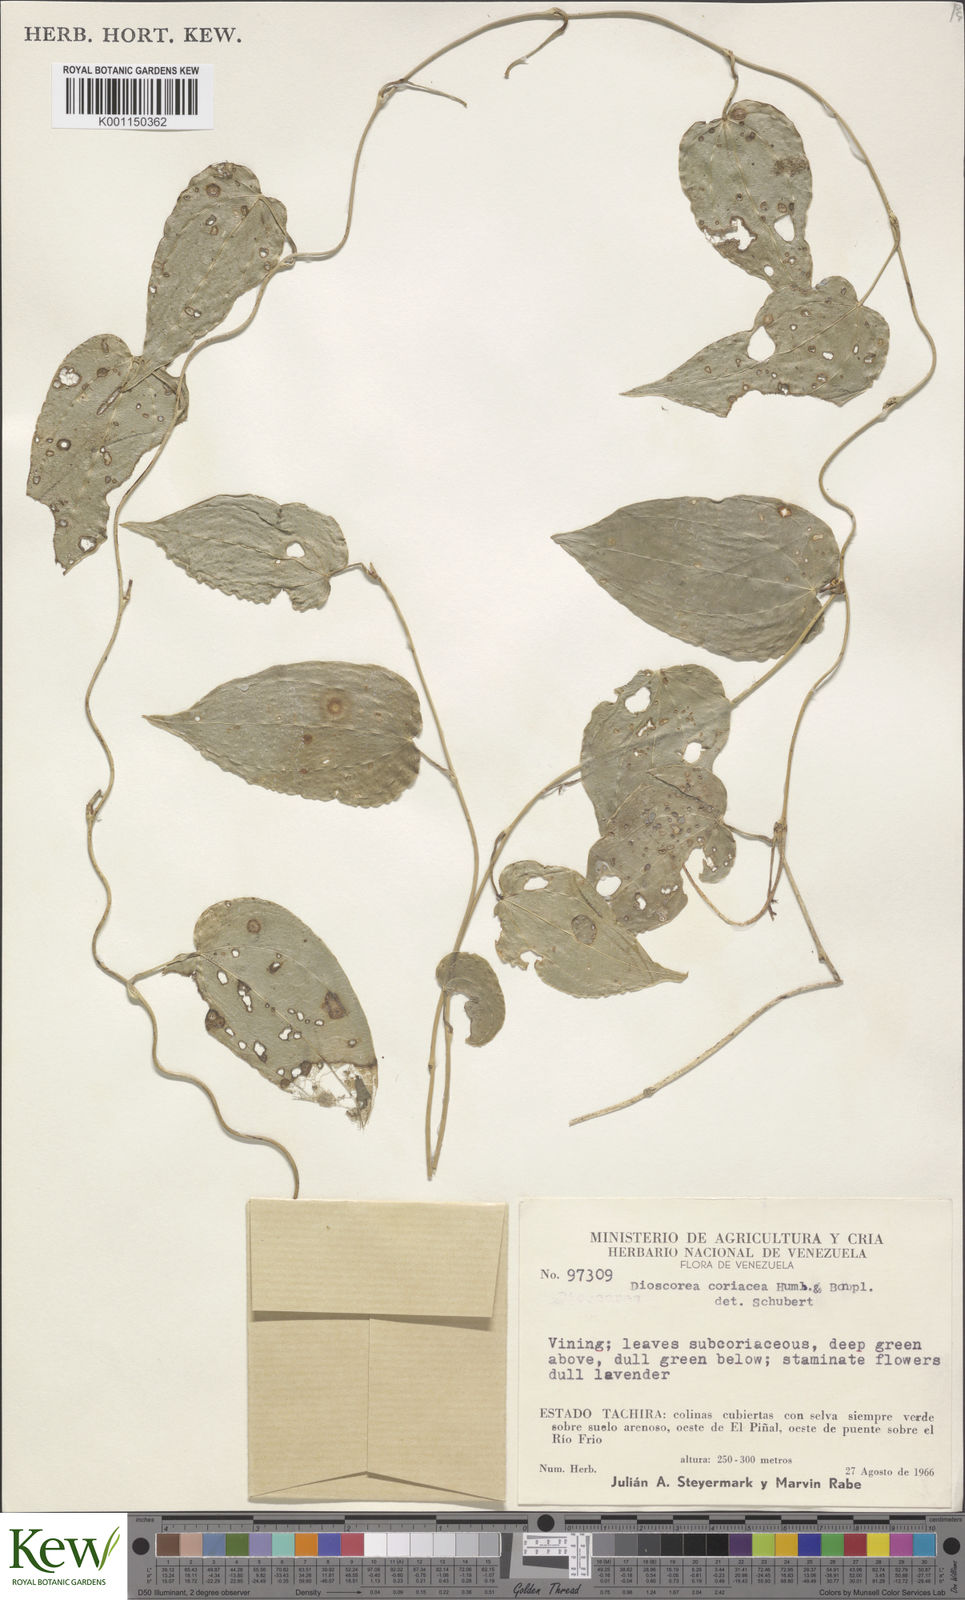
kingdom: Plantae
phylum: Tracheophyta
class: Liliopsida
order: Dioscoreales
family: Dioscoreaceae
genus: Dioscorea
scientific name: Dioscorea coriacea
